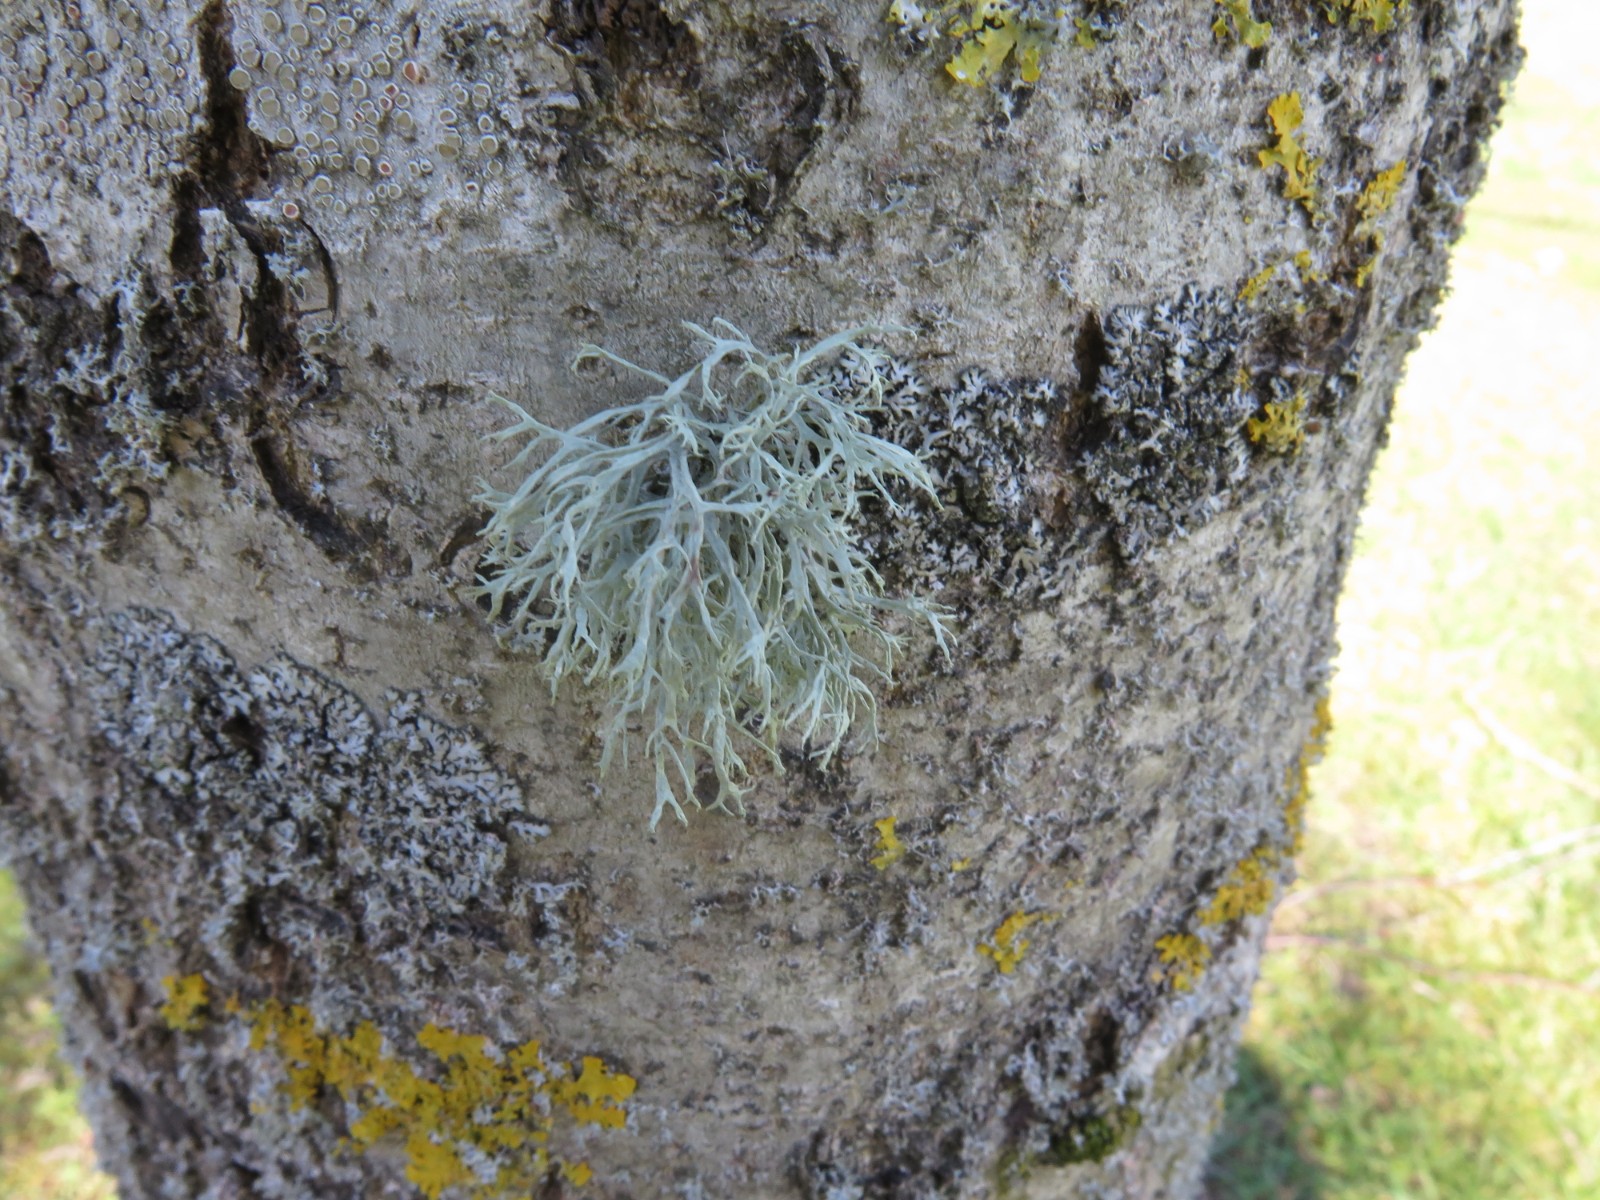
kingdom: Fungi
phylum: Ascomycota
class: Lecanoromycetes
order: Lecanorales
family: Parmeliaceae
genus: Evernia
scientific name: Evernia prunastri
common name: almindelig slåenlav
